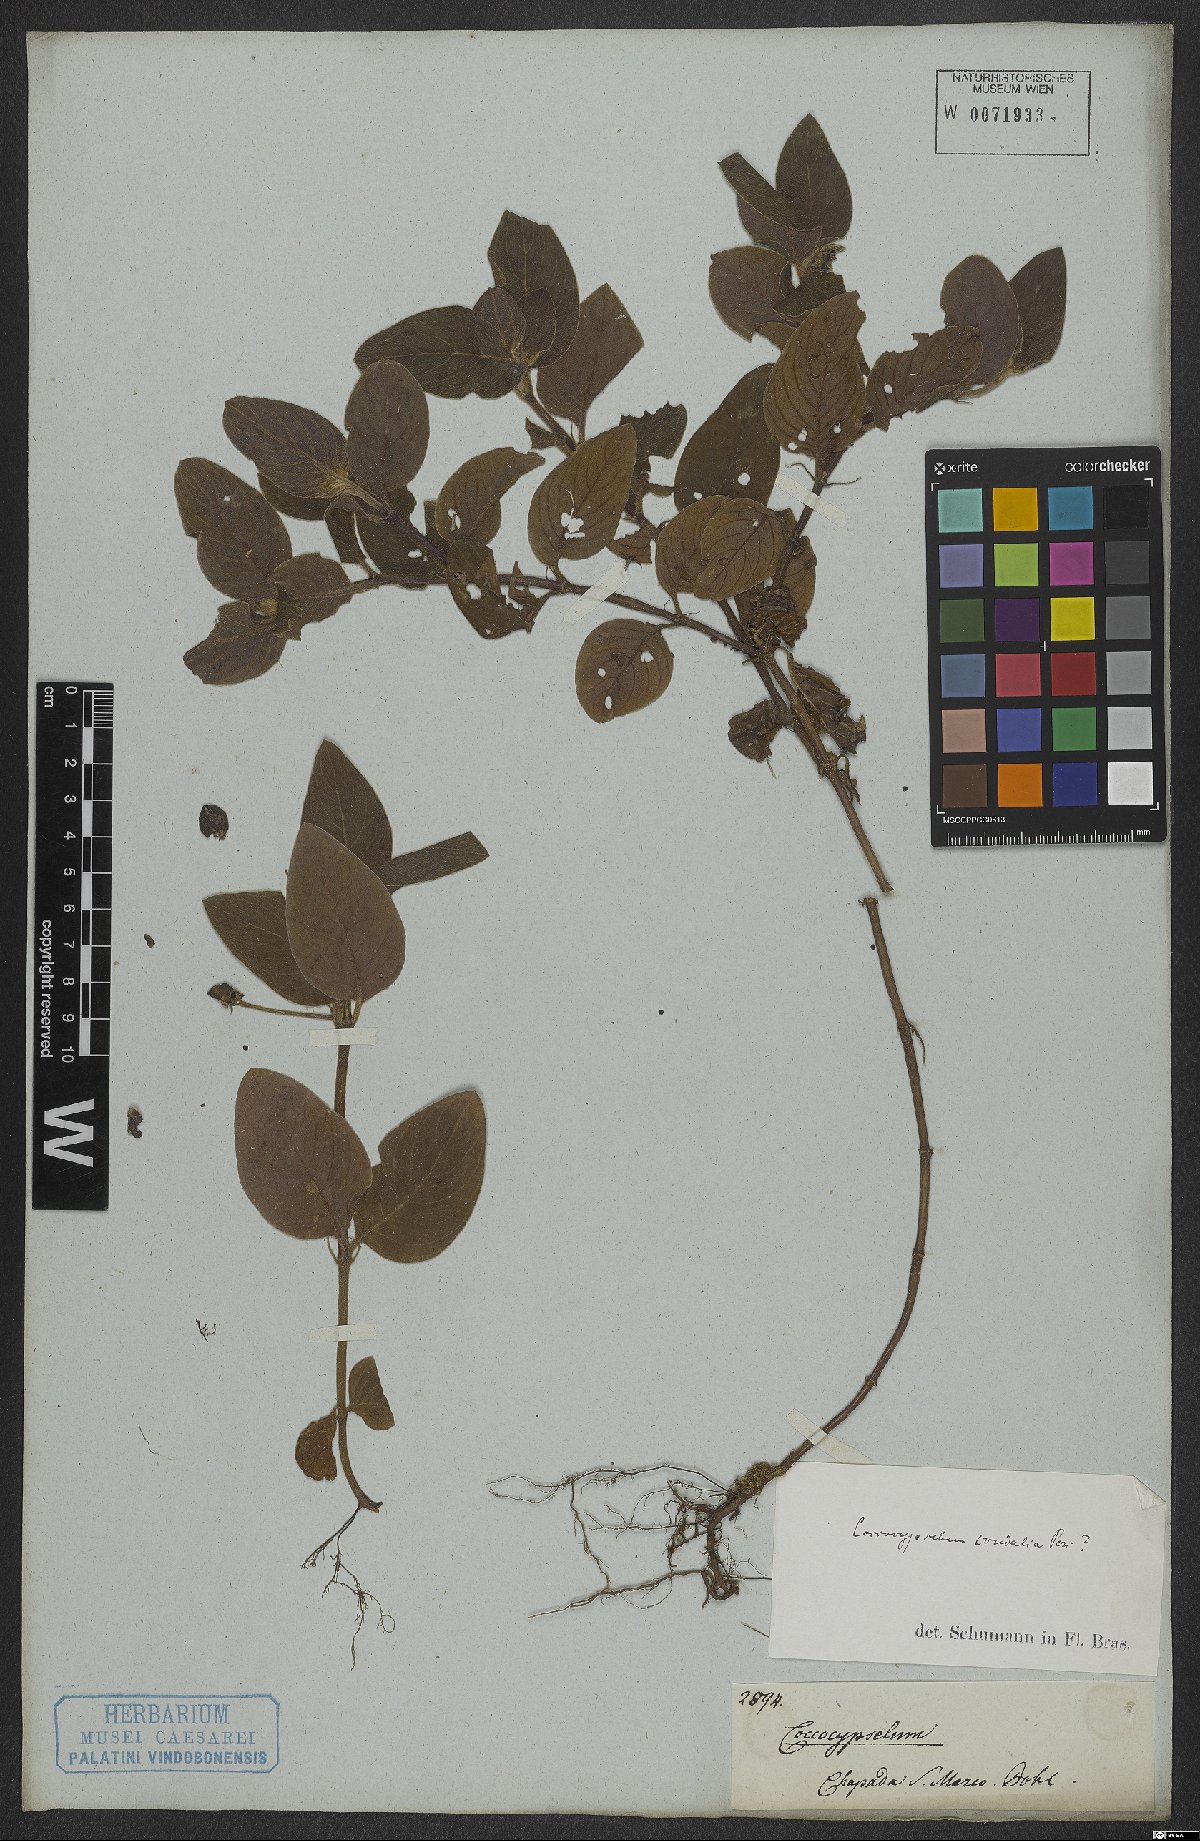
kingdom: Plantae
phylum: Tracheophyta
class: Magnoliopsida
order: Gentianales
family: Rubiaceae
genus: Coccocypselum
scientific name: Coccocypselum condalia
